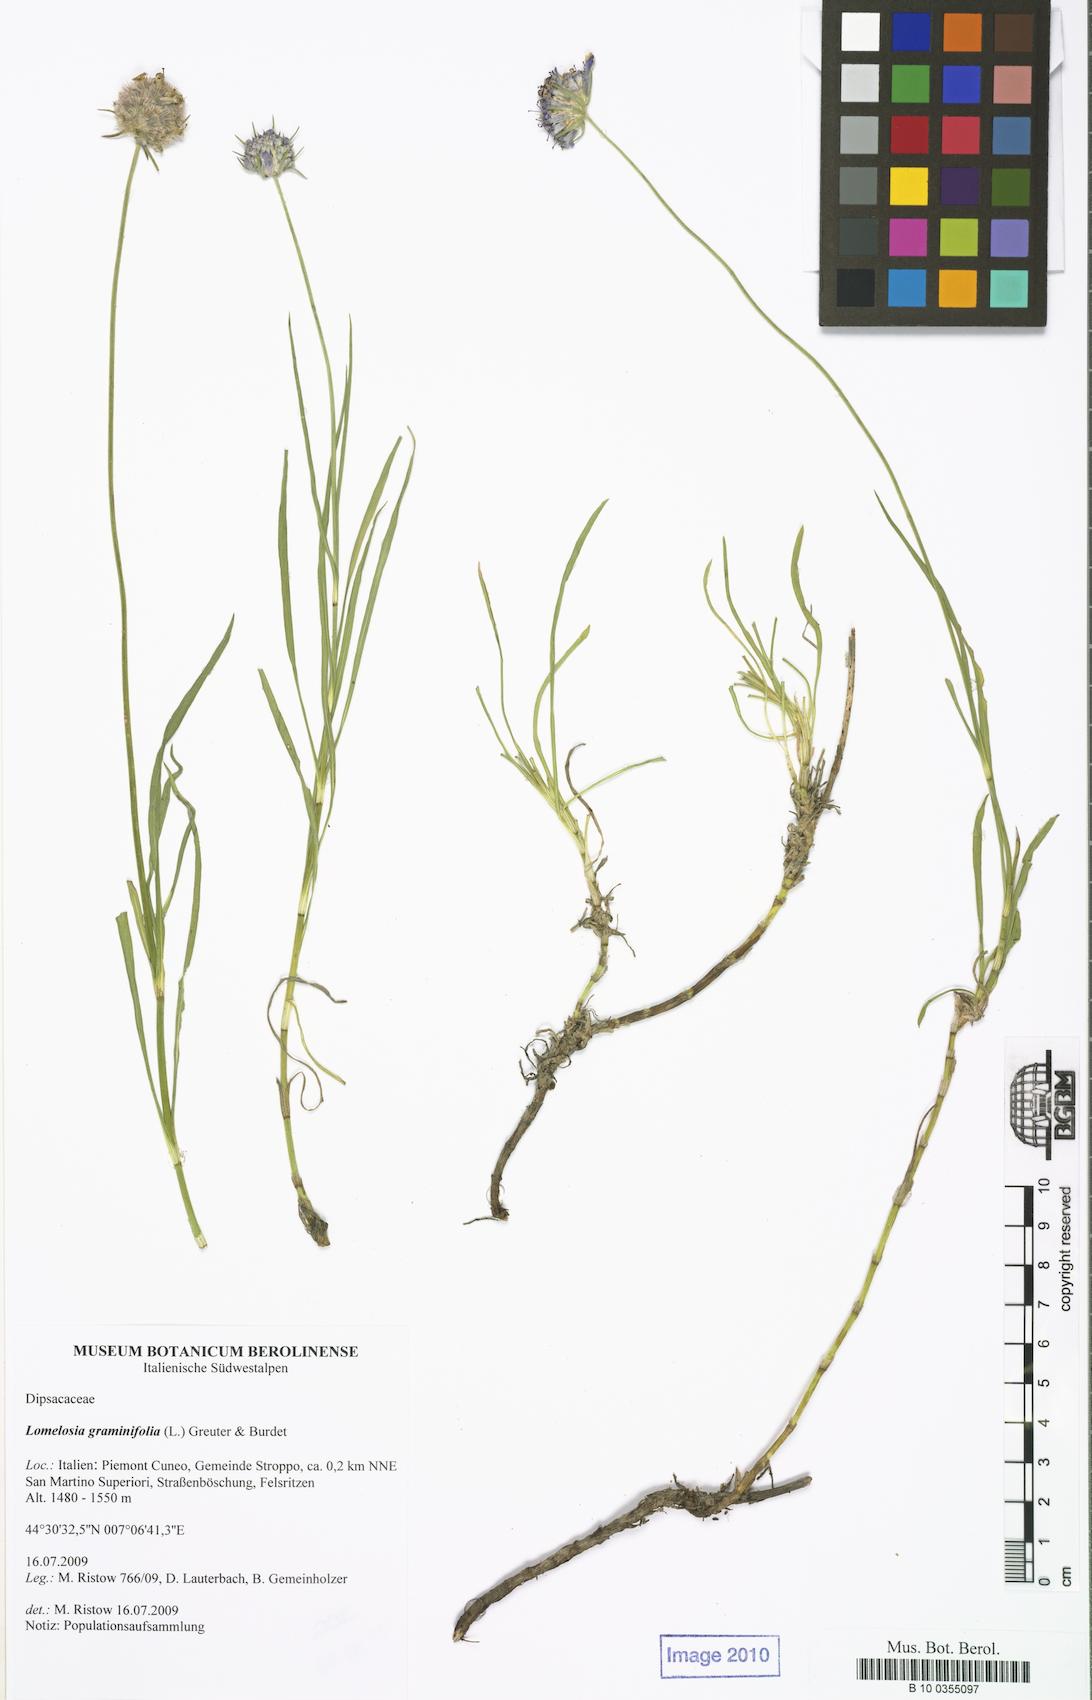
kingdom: Plantae
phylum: Tracheophyta
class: Magnoliopsida
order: Dipsacales
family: Caprifoliaceae
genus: Lomelosia
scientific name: Lomelosia graminifolia
